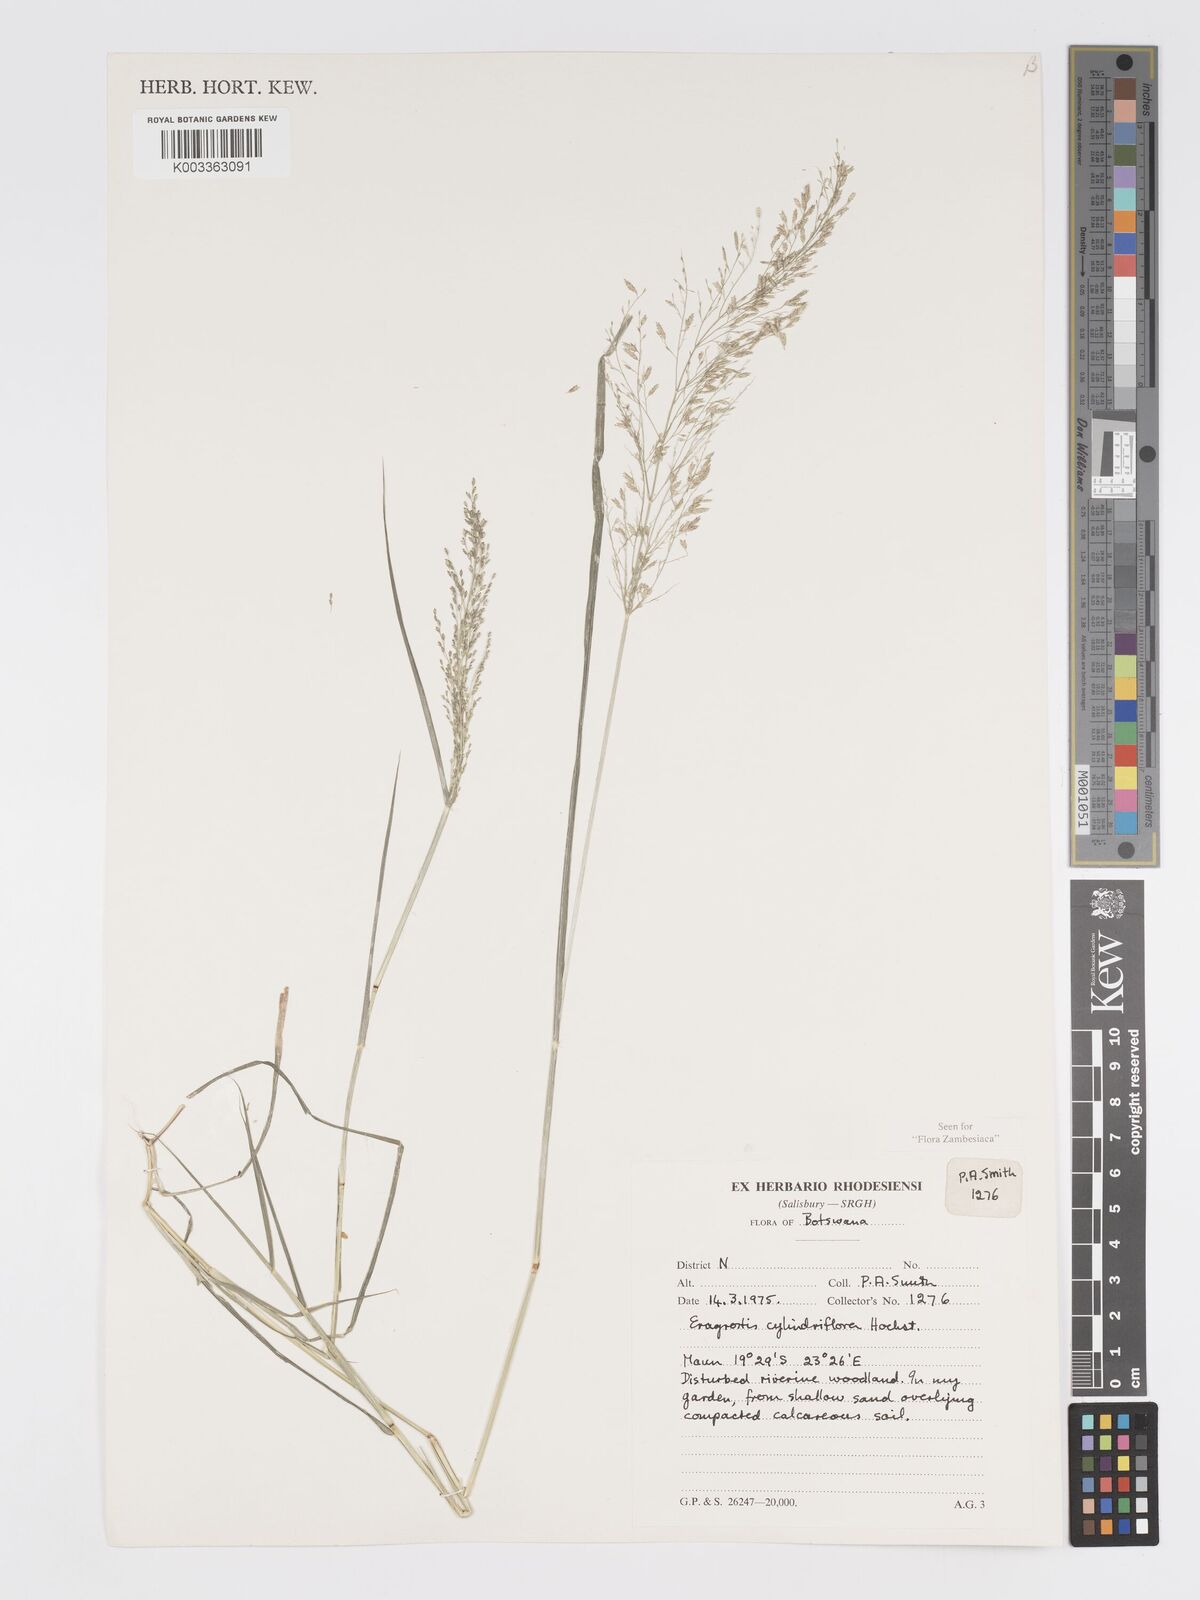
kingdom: Plantae
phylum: Tracheophyta
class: Liliopsida
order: Poales
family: Poaceae
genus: Eragrostis
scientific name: Eragrostis cylindriflora
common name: Cylinderflower lovegrass
